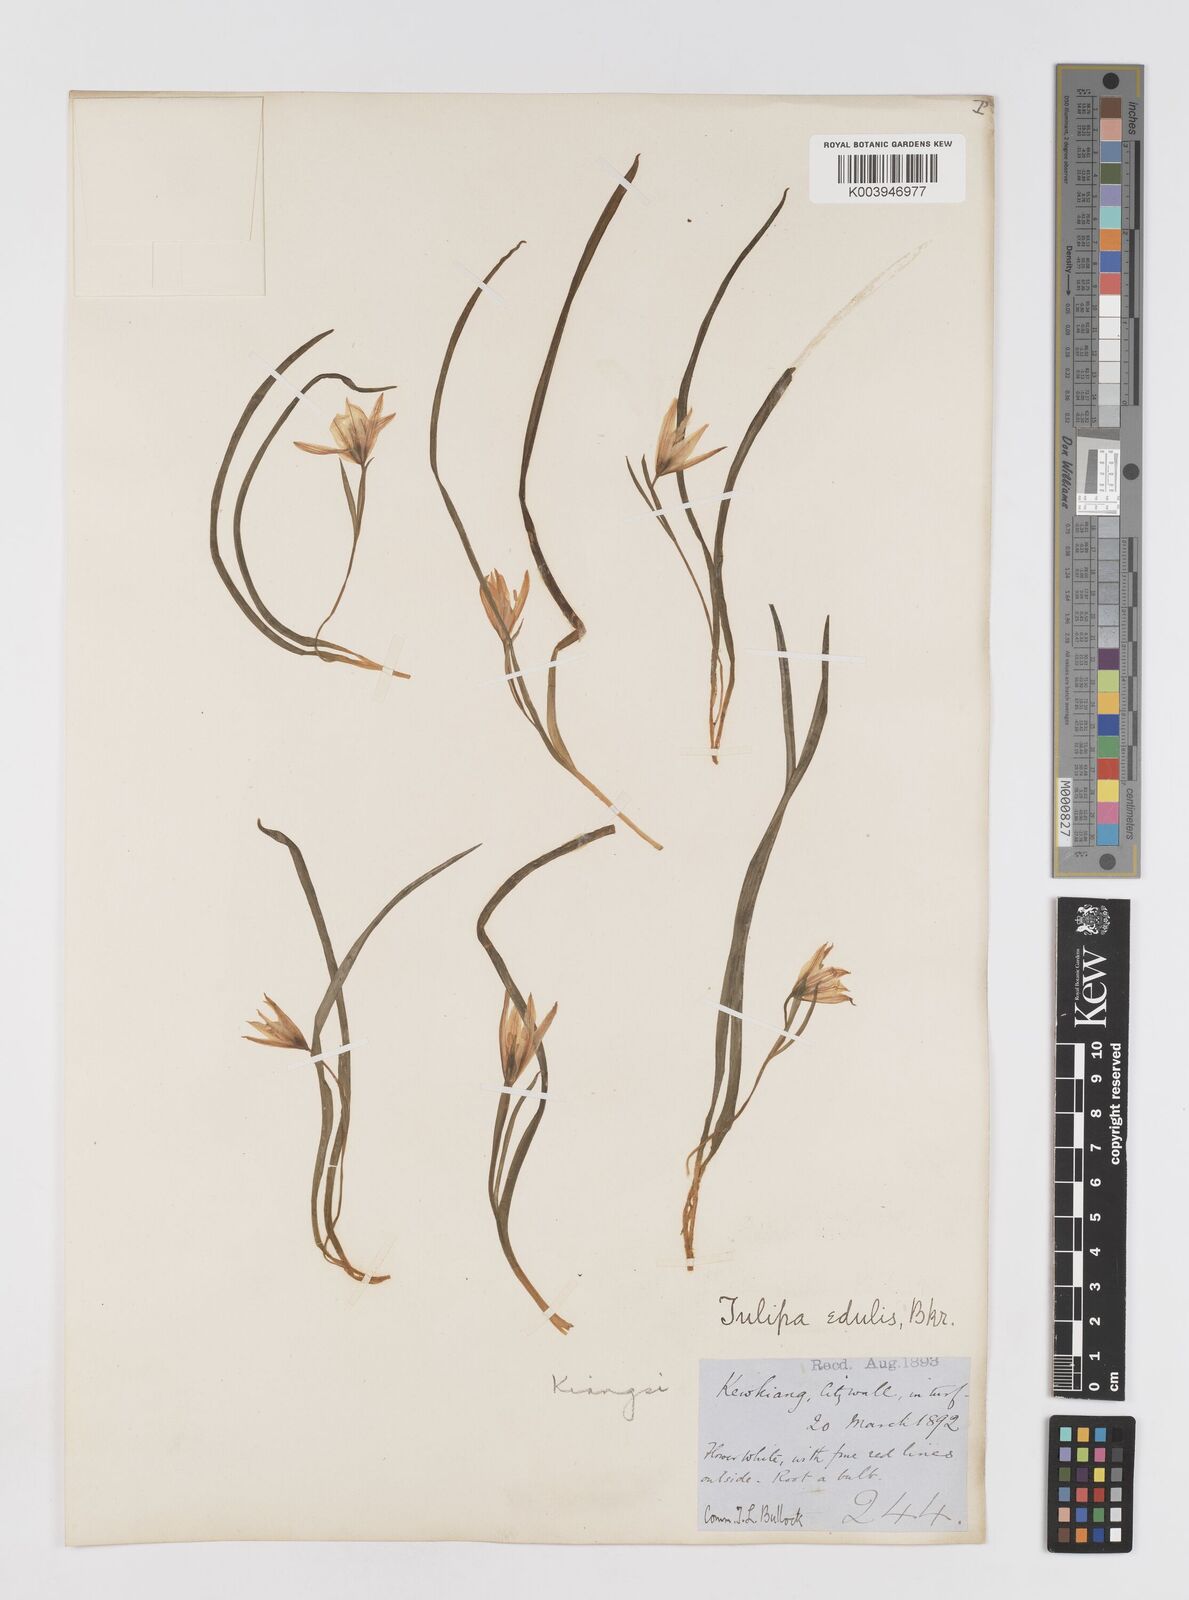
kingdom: Plantae
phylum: Tracheophyta
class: Liliopsida
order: Liliales
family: Liliaceae
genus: Amana
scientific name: Amana edulis
